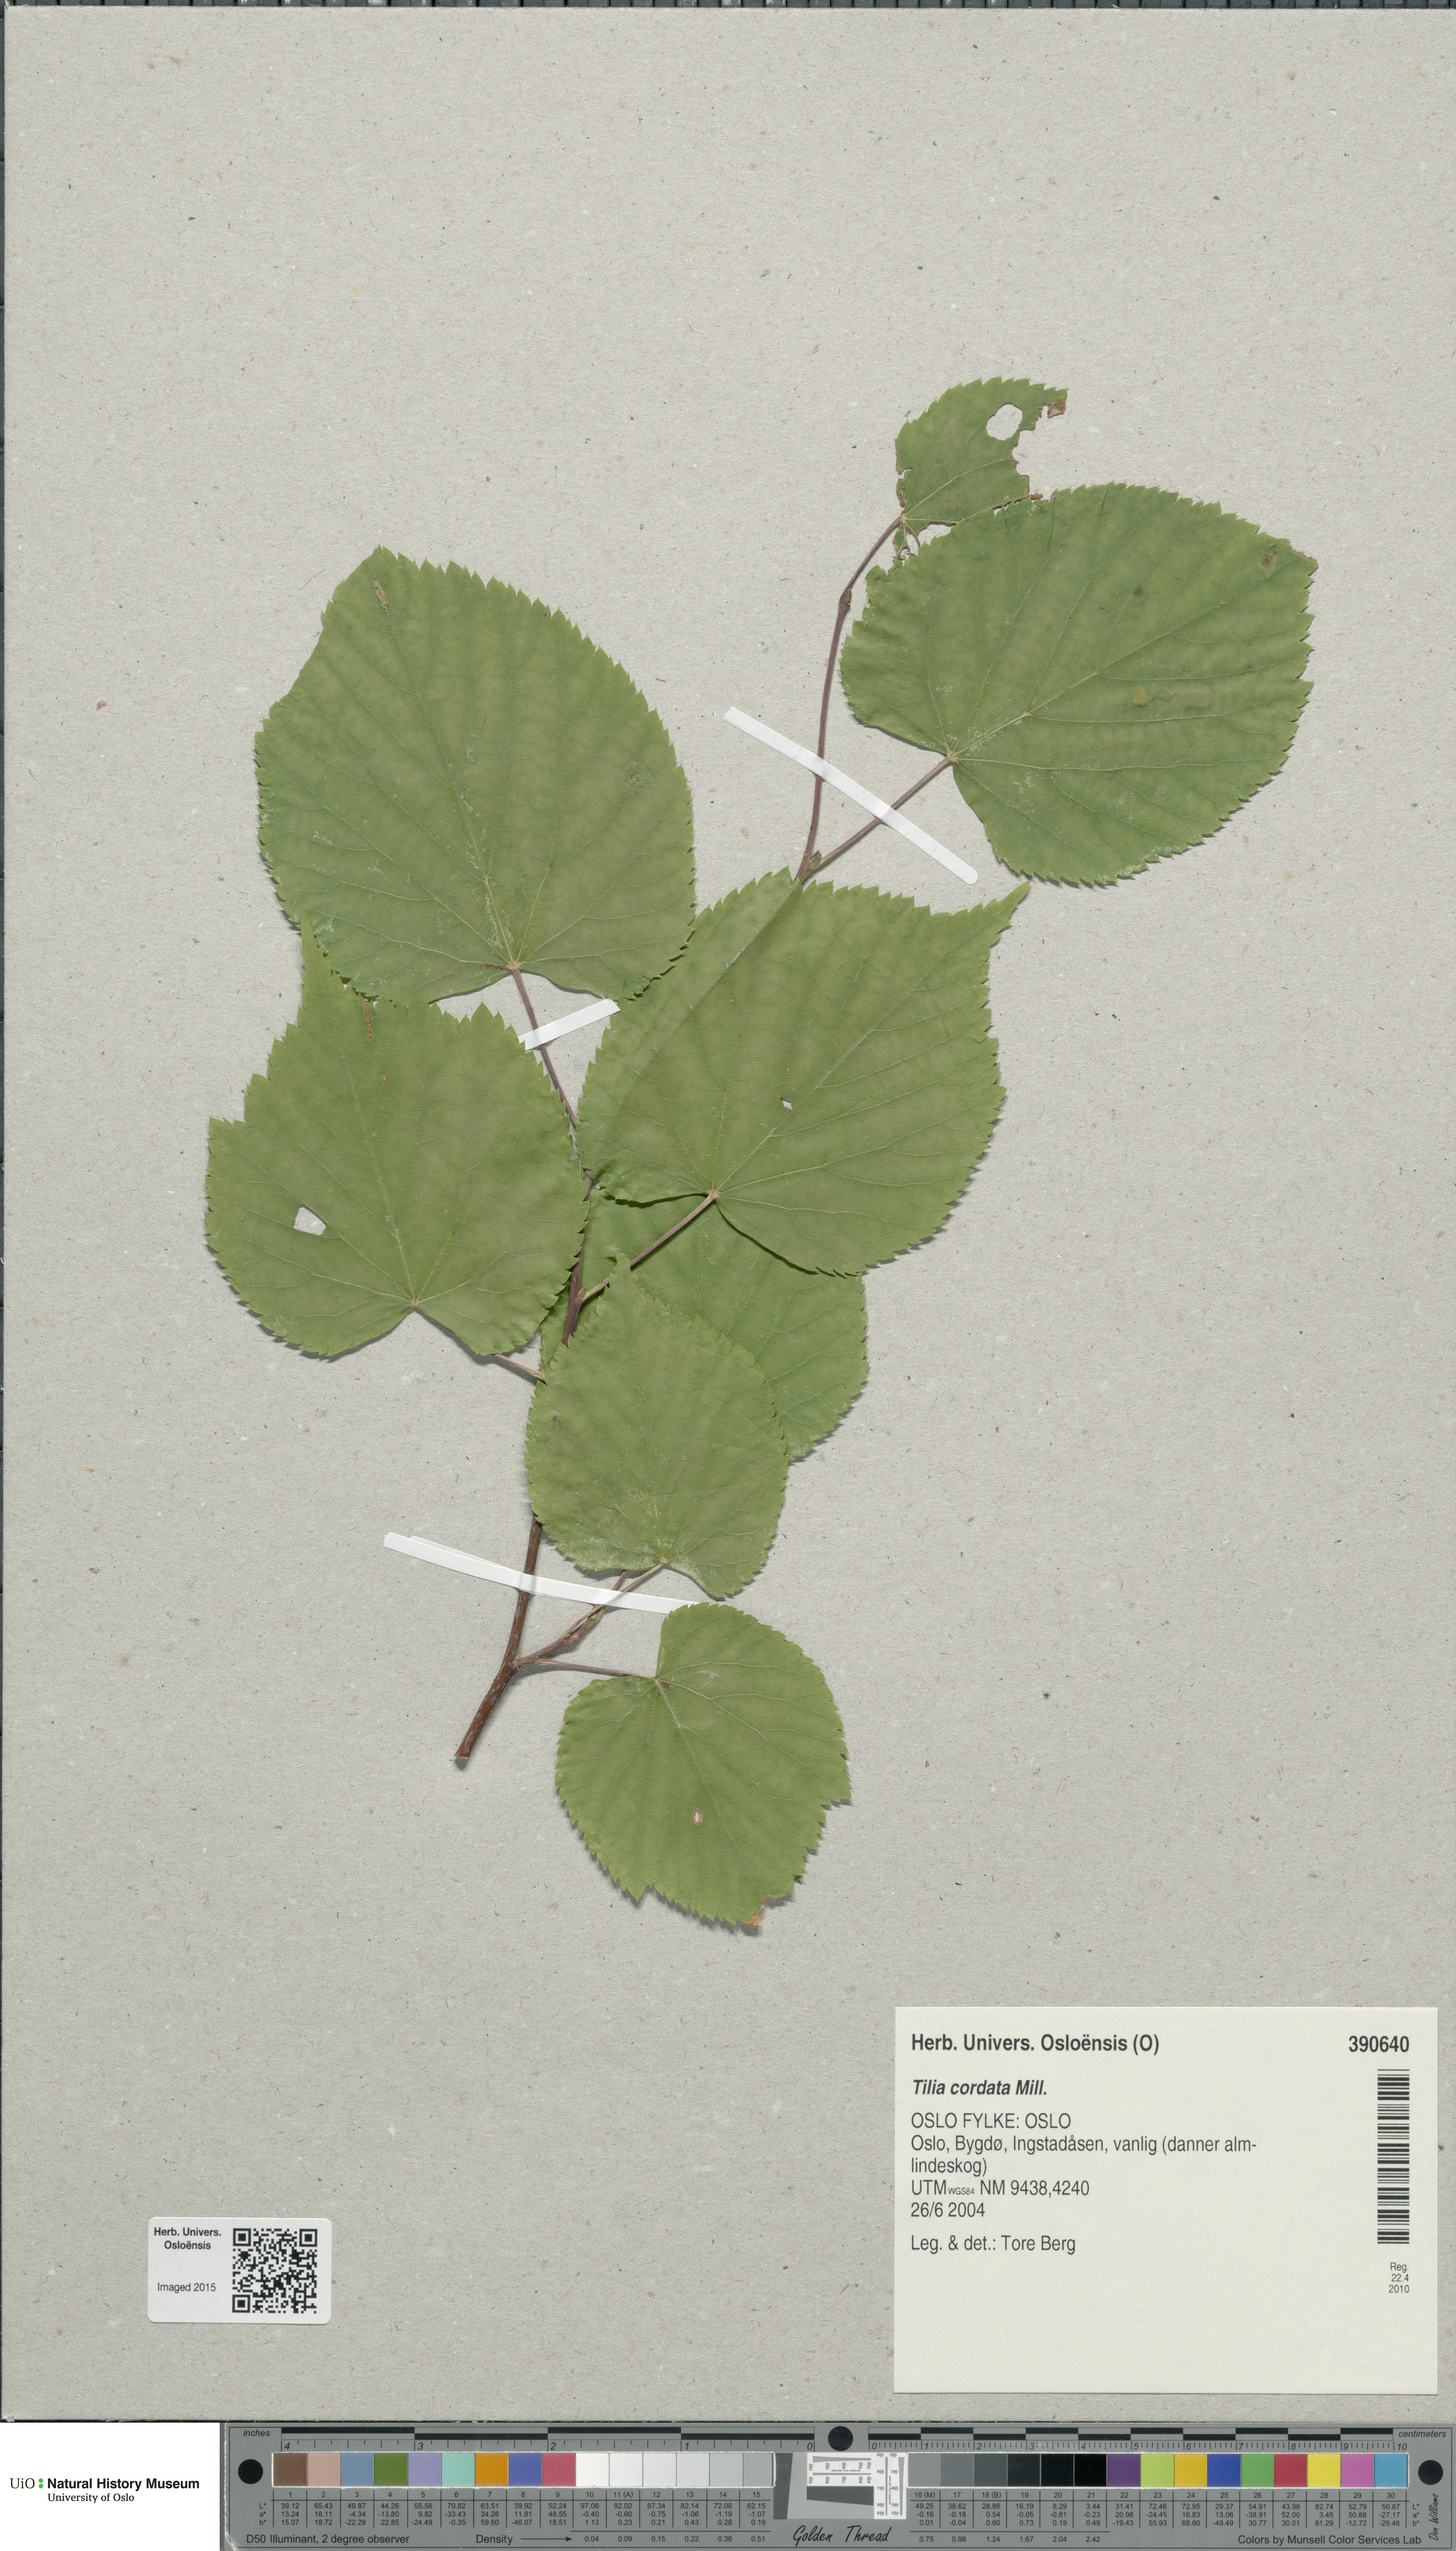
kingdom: Plantae
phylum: Tracheophyta
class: Magnoliopsida
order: Malvales
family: Malvaceae
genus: Tilia
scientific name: Tilia cordata
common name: Small-leaved lime
